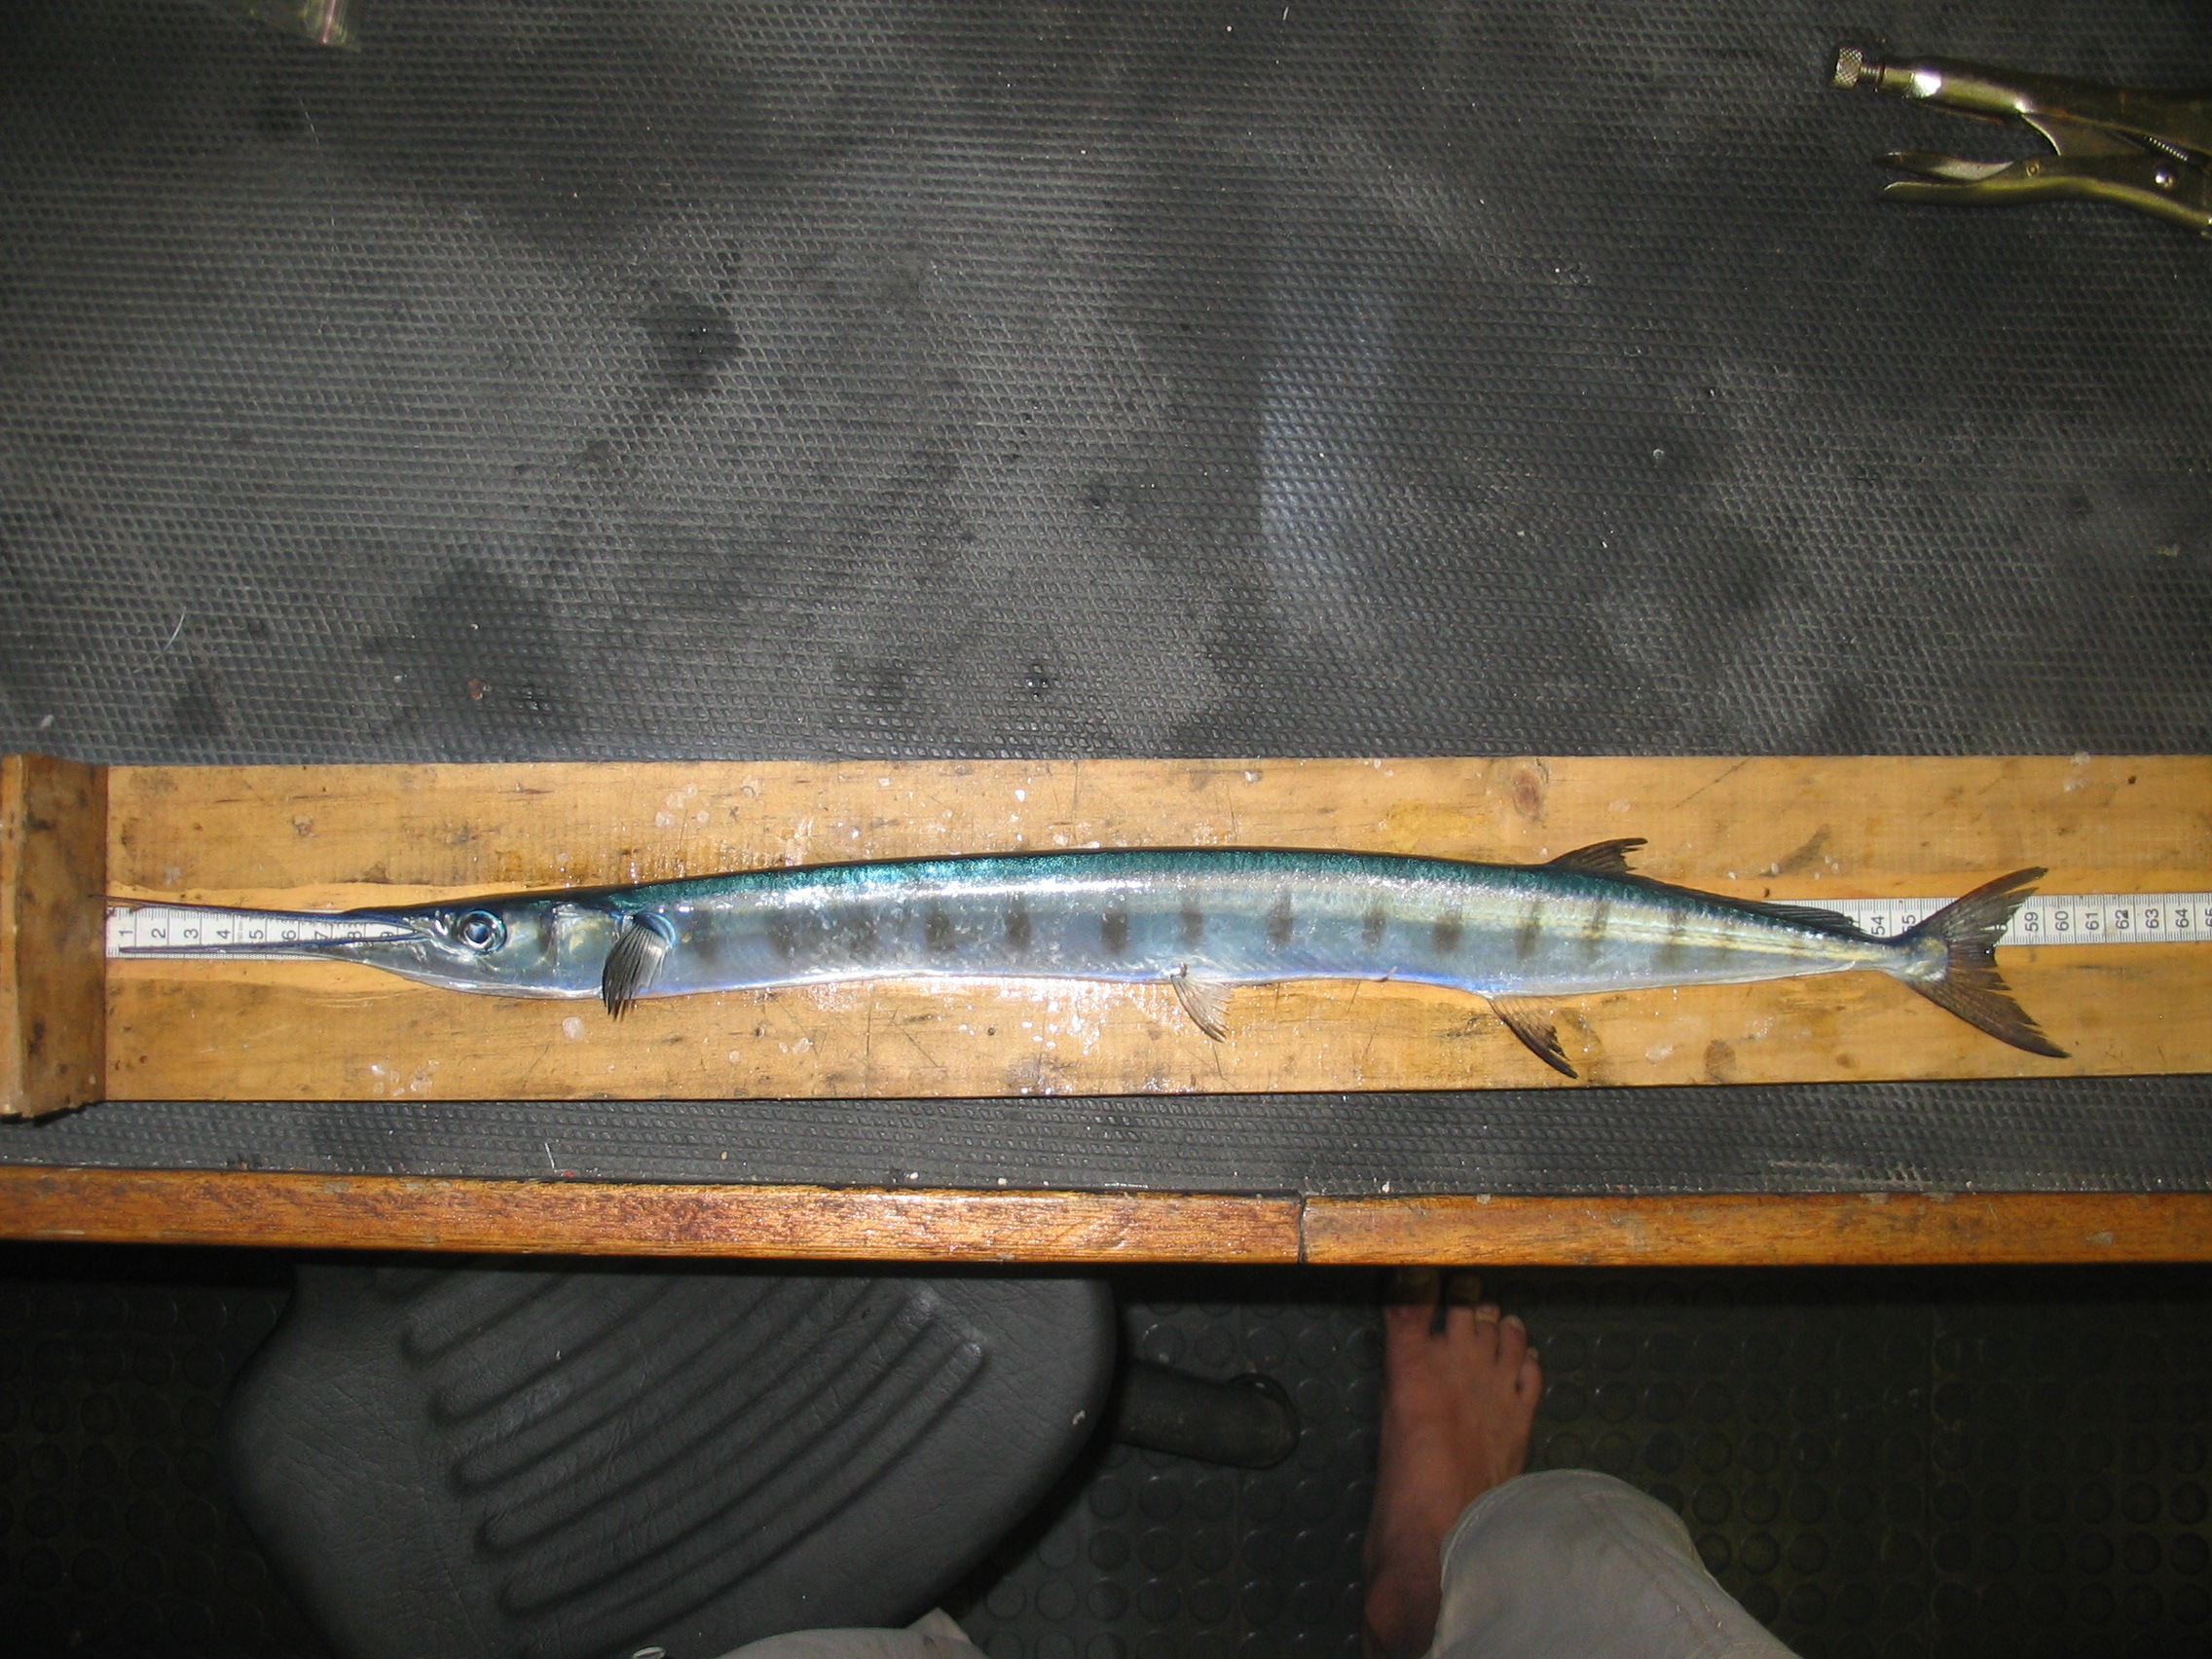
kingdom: Animalia
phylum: Chordata
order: Beloniformes
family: Belonidae
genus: Ablennes
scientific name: Ablennes hians
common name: Flat needlefish
